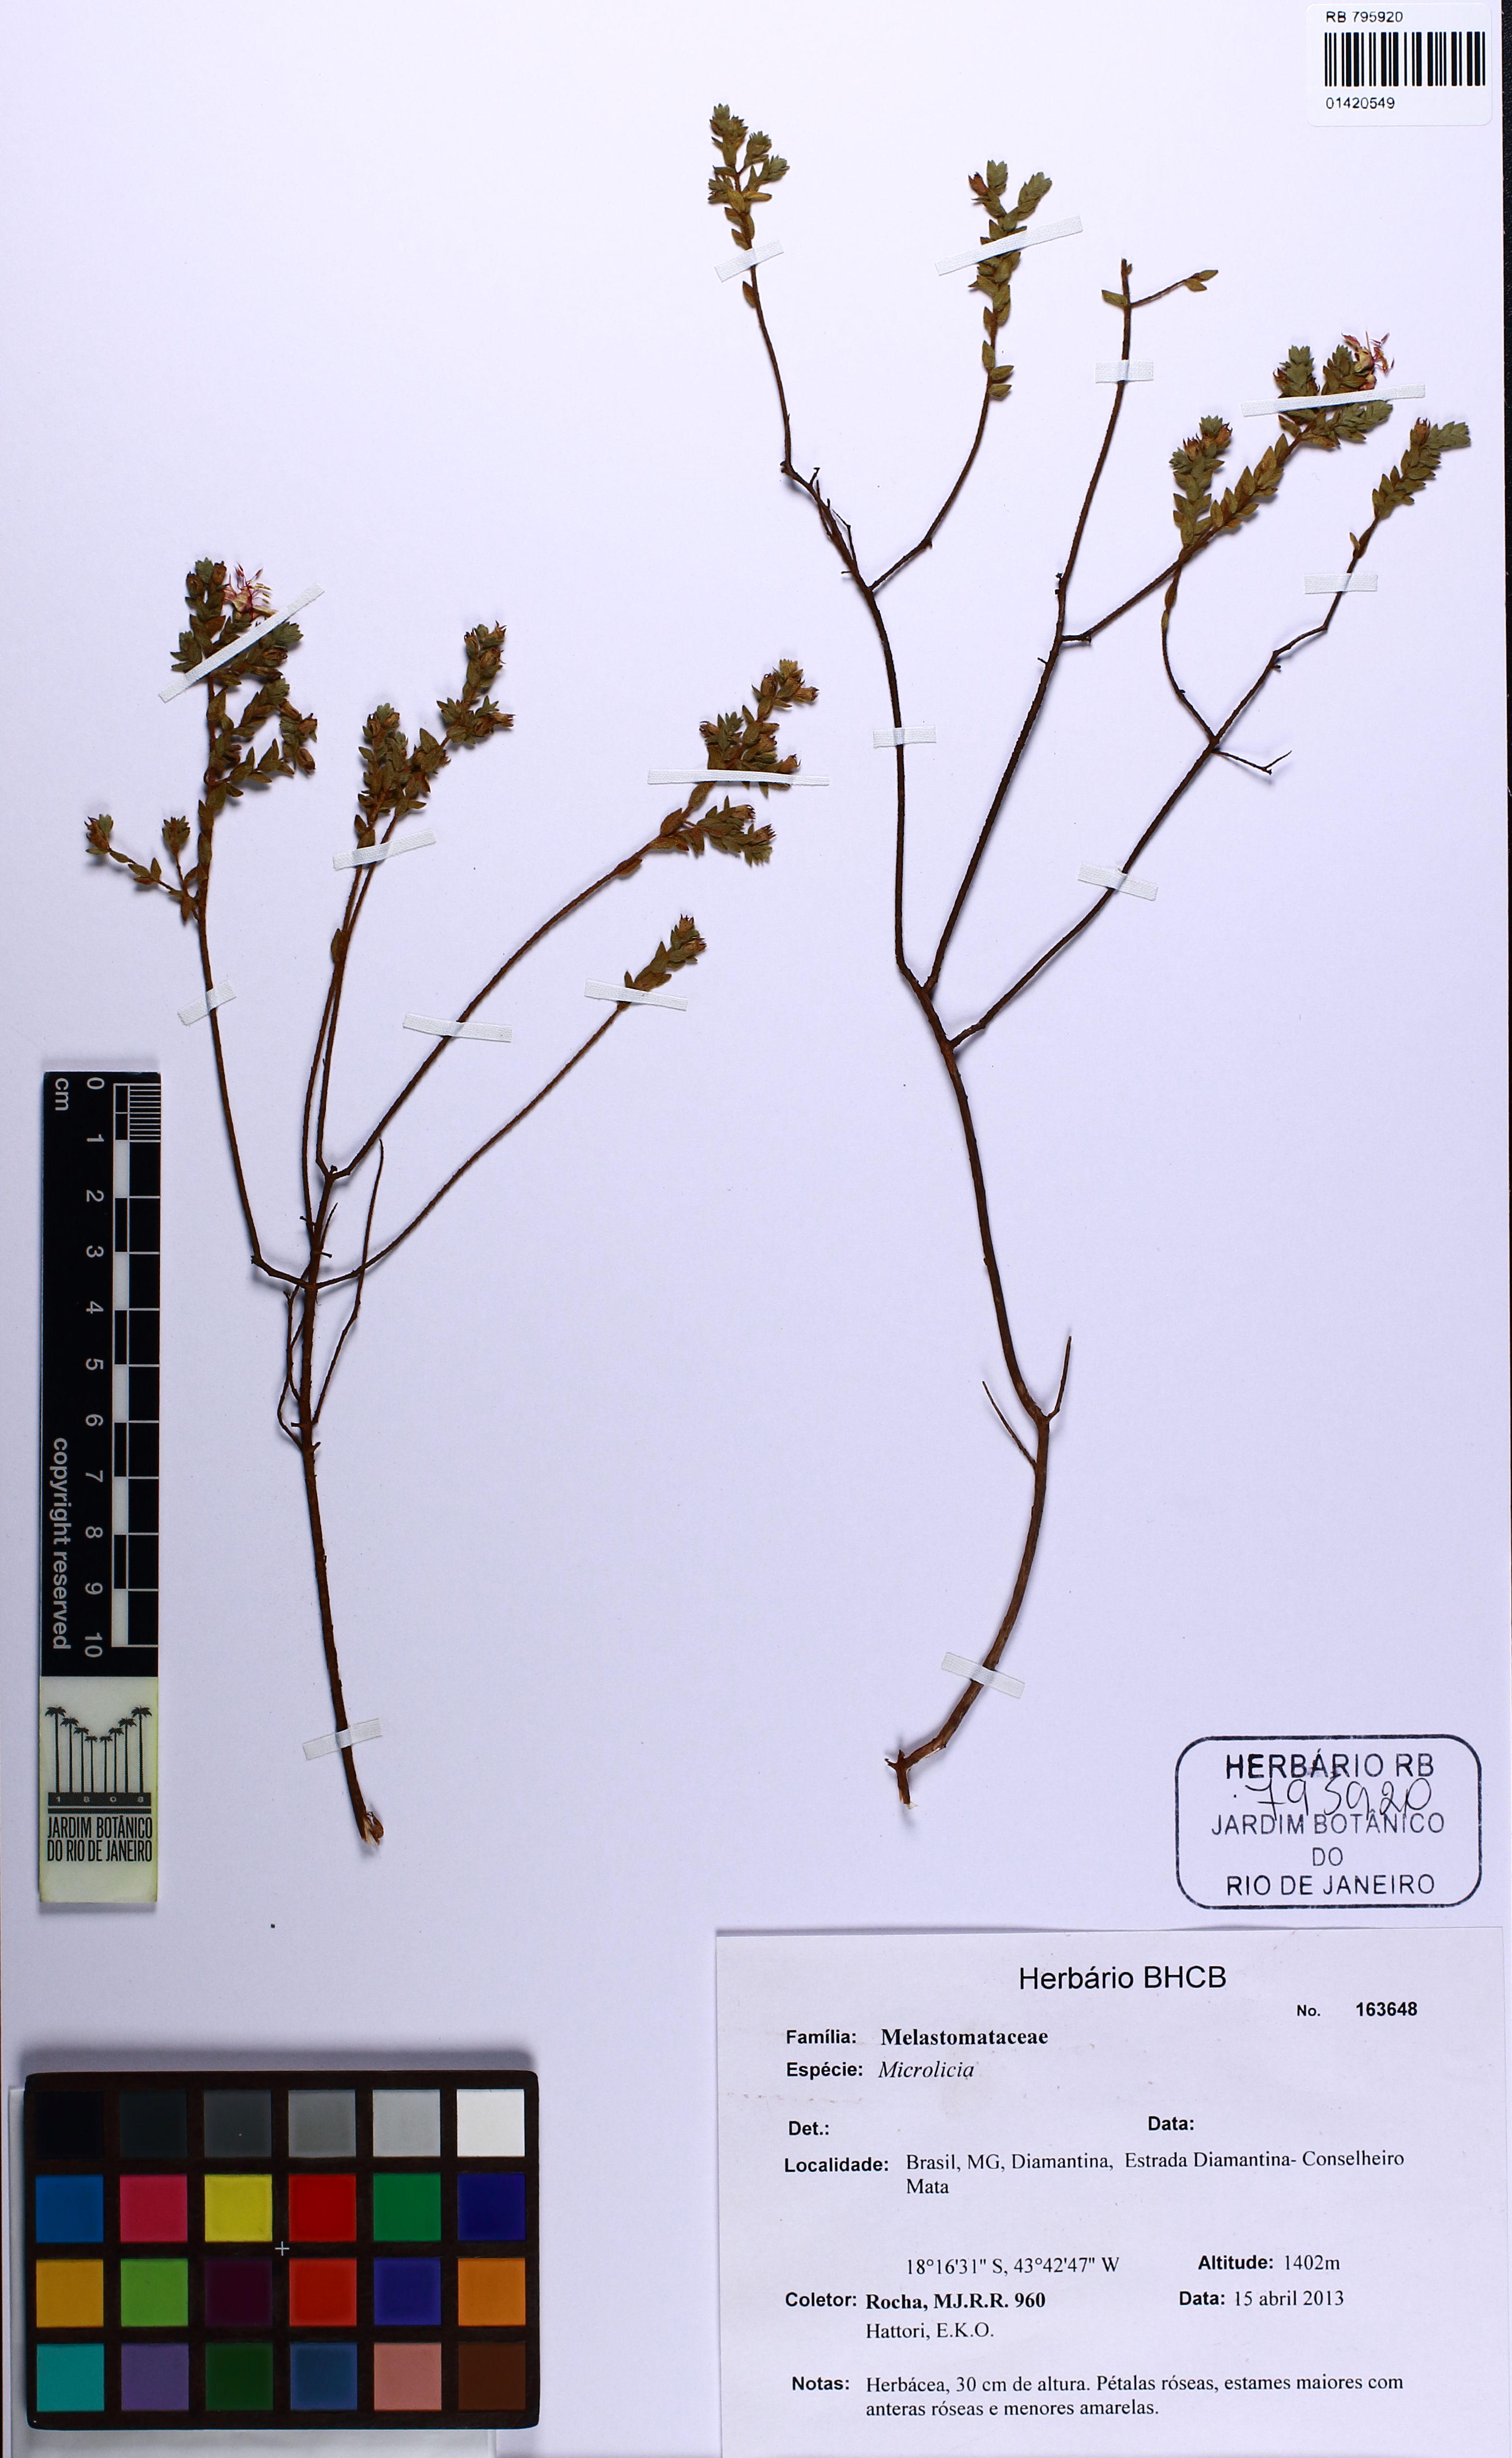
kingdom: Plantae
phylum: Tracheophyta
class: Magnoliopsida
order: Myrtales
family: Melastomataceae
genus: Microlicia
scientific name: Microlicia regeliana
